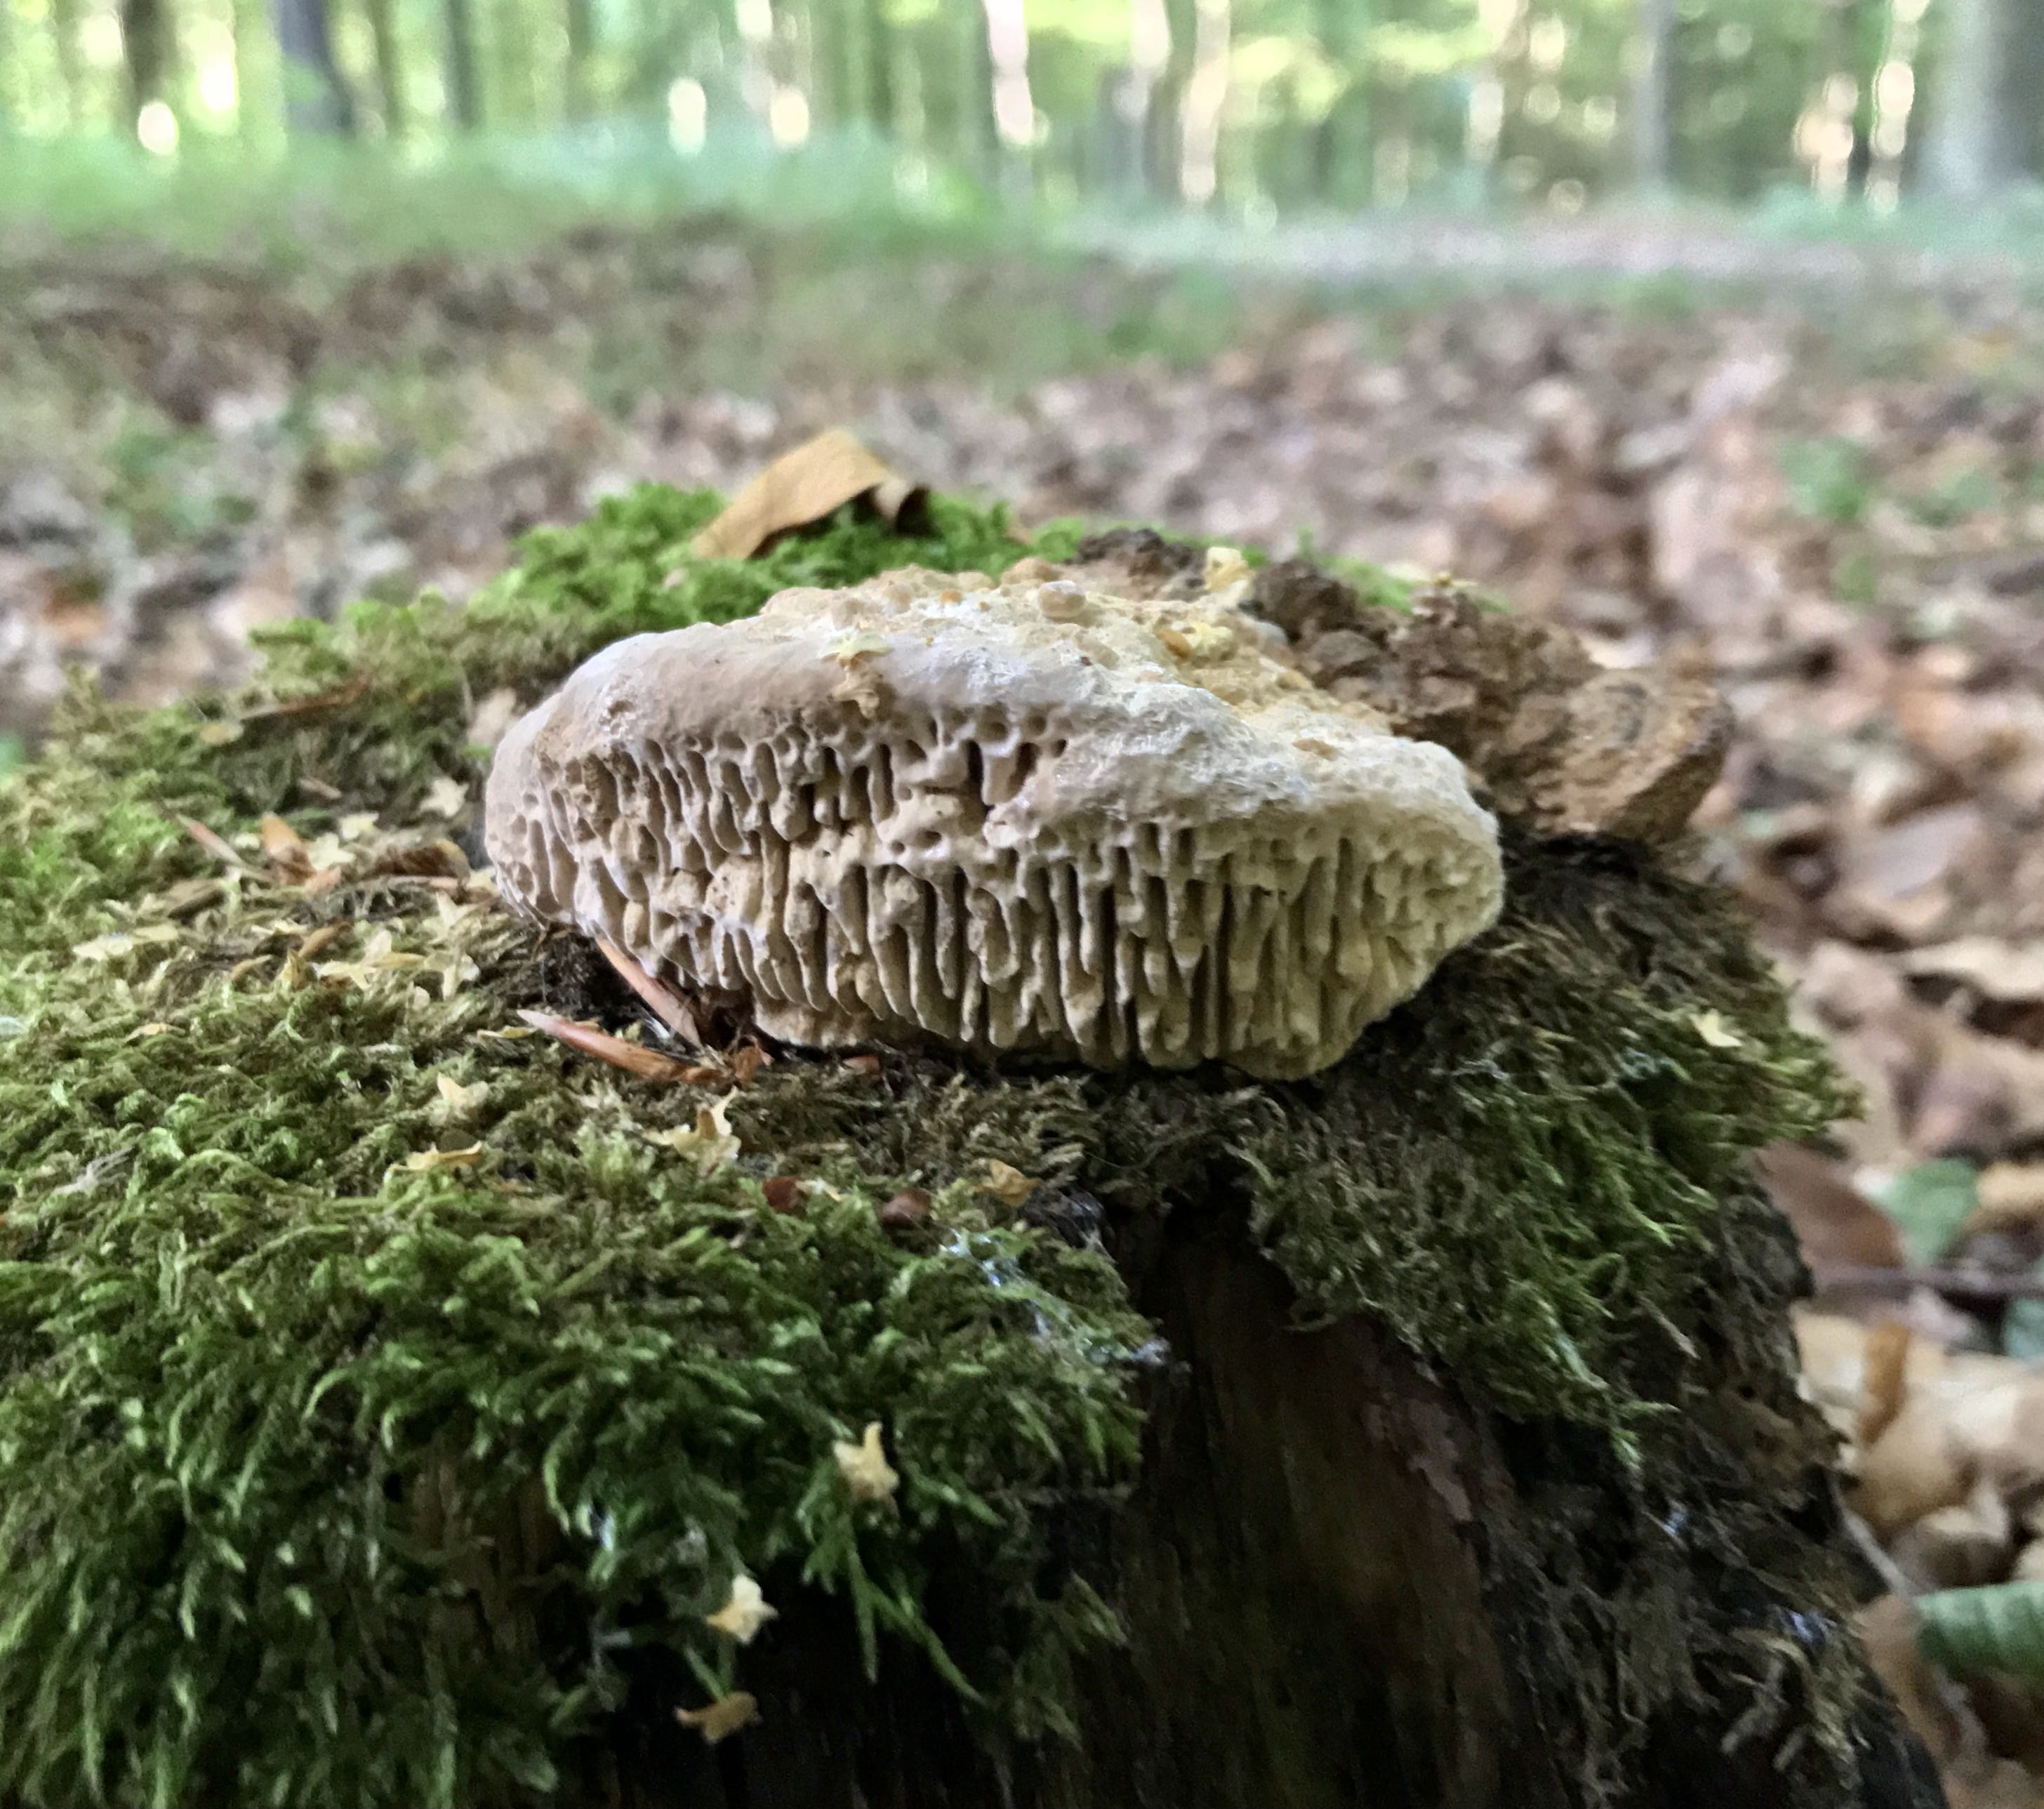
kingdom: Fungi
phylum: Basidiomycota
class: Agaricomycetes
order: Polyporales
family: Fomitopsidaceae
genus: Daedalea
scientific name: Daedalea quercina
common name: ege-labyrintsvamp
